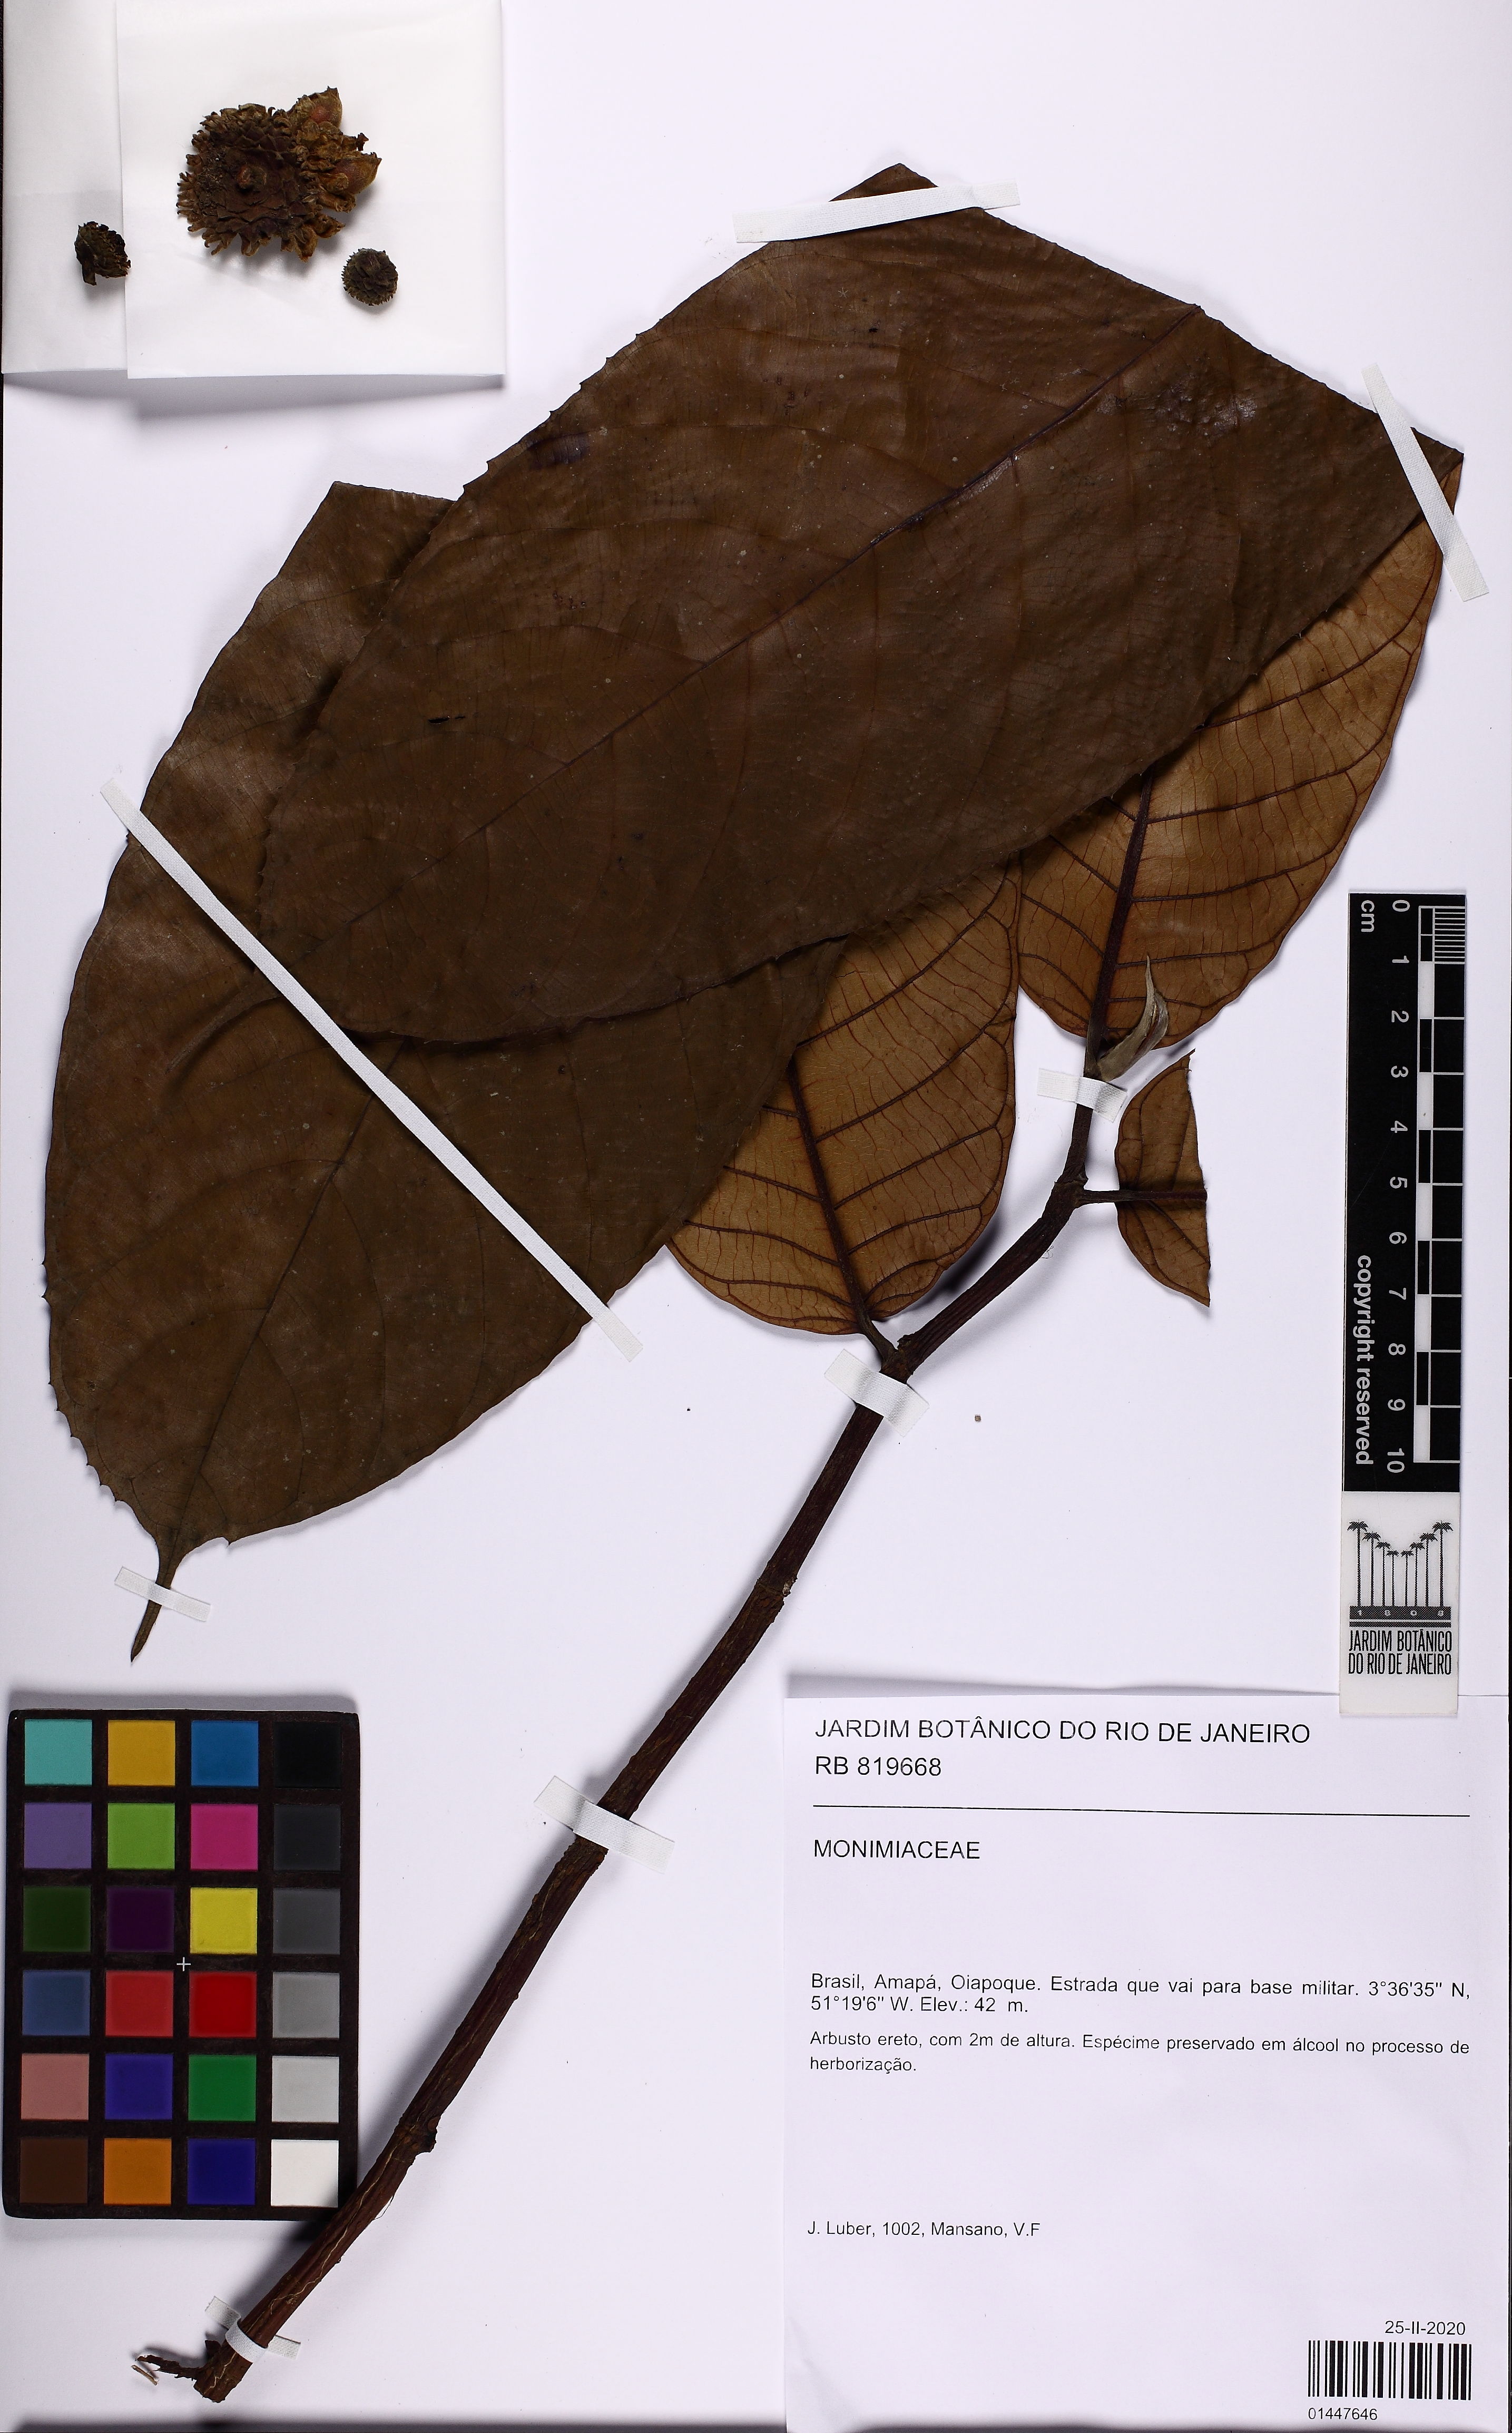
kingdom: Plantae
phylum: Tracheophyta
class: Magnoliopsida
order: Rosales
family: Moraceae
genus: Brosimum
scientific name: Brosimum
